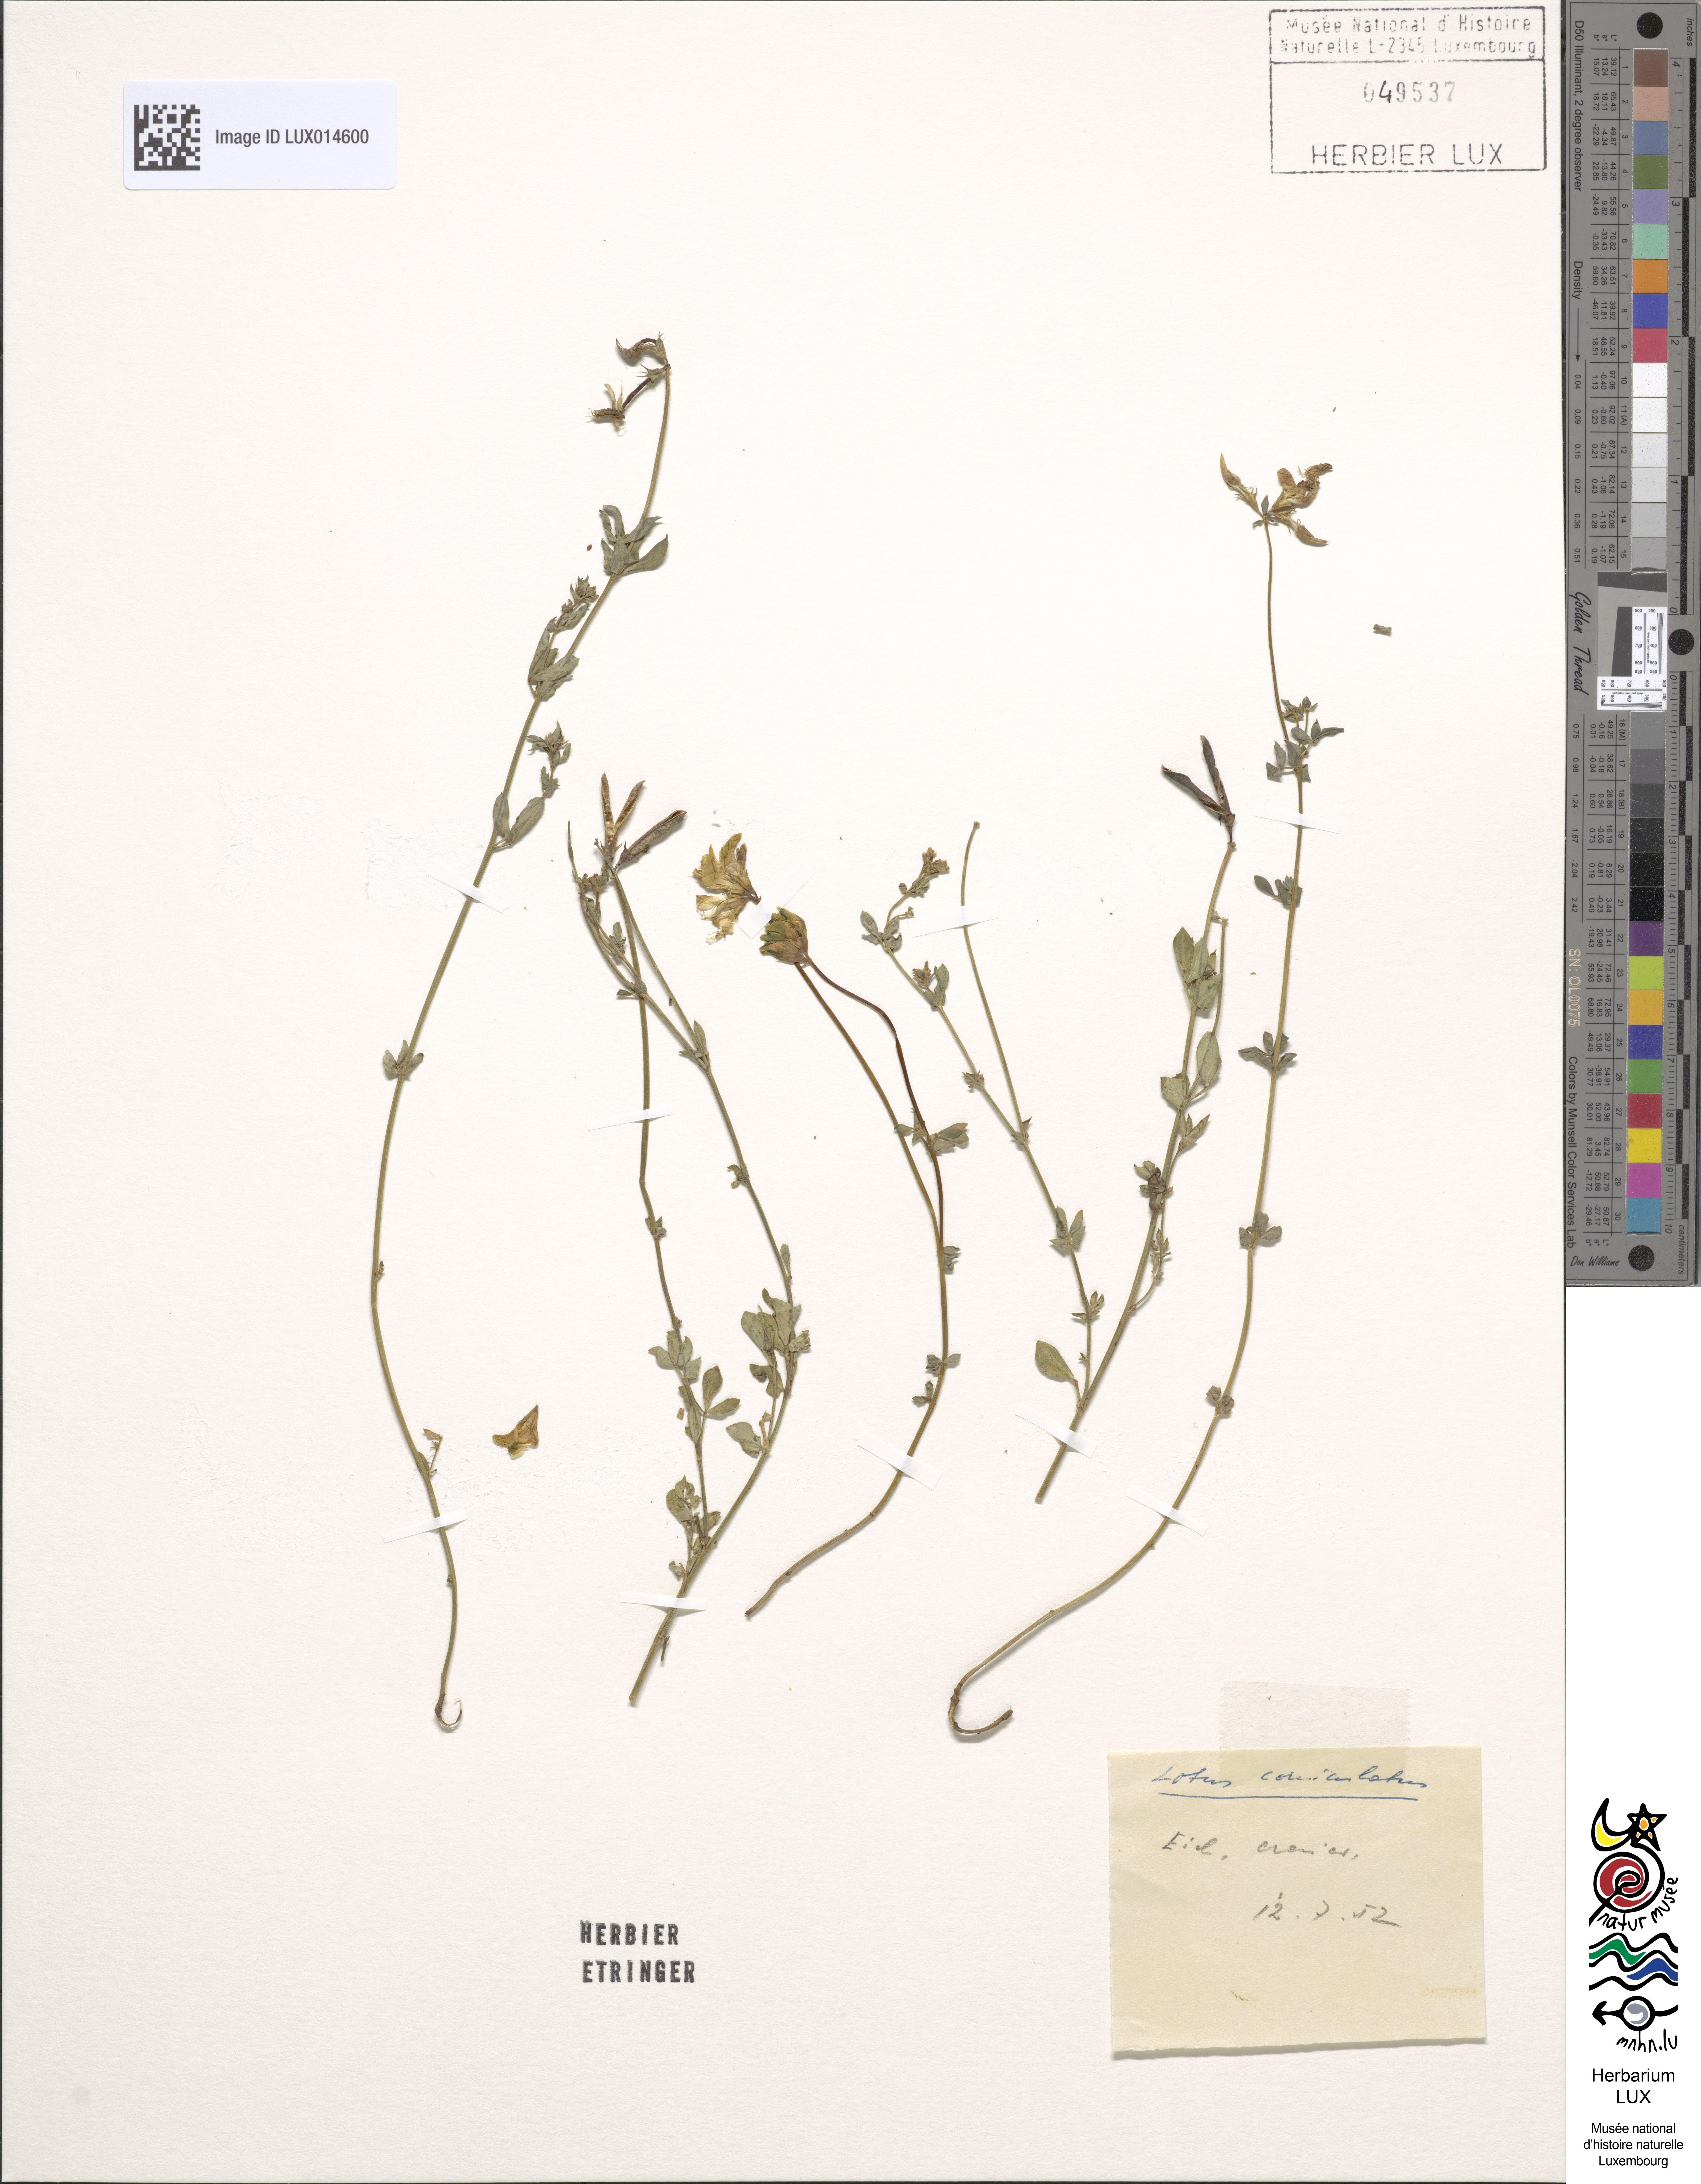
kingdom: Plantae
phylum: Tracheophyta
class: Magnoliopsida
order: Fabales
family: Fabaceae
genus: Lotus
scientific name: Lotus corniculatus
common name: Common bird's-foot-trefoil
